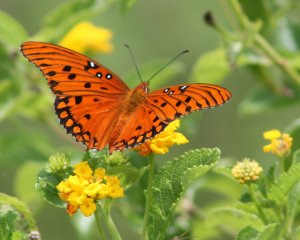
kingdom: Animalia
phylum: Arthropoda
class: Insecta
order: Lepidoptera
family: Nymphalidae
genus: Dione
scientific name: Dione vanillae
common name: Gulf Fritillary
